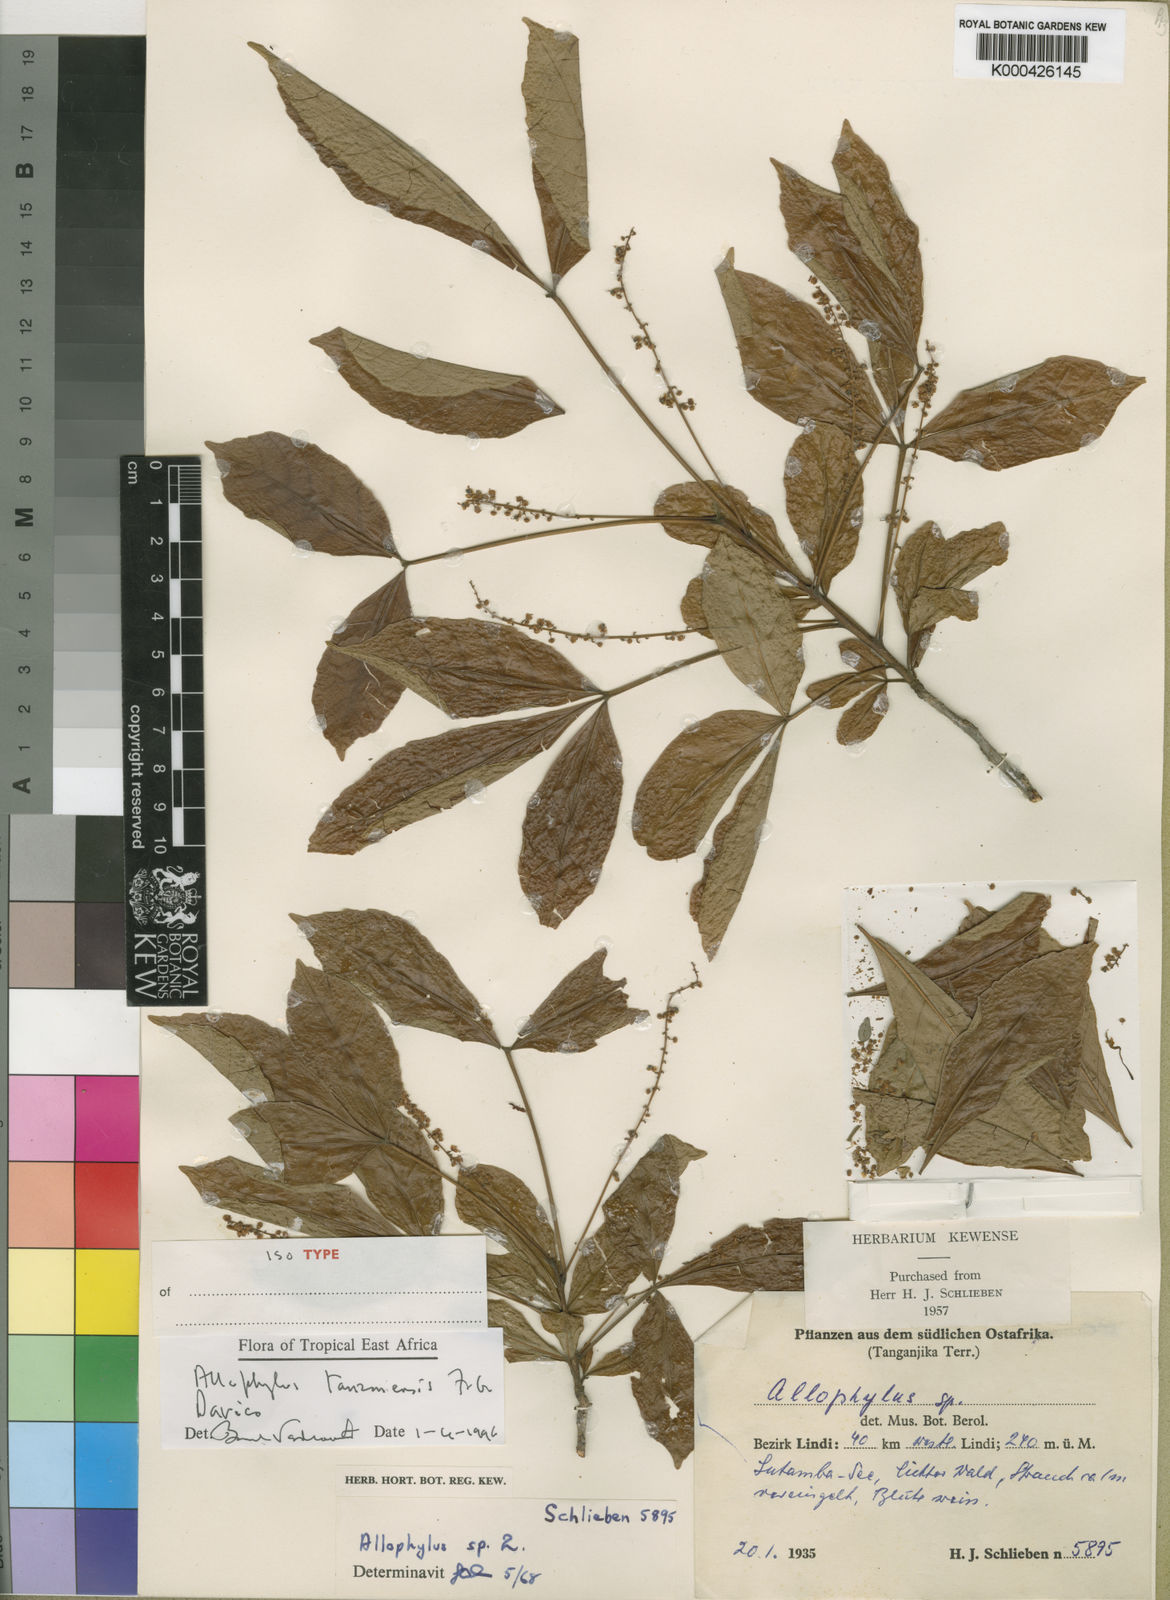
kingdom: Plantae
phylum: Tracheophyta
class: Magnoliopsida
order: Sapindales
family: Sapindaceae
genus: Allophylus
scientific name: Allophylus tanzaniensis
